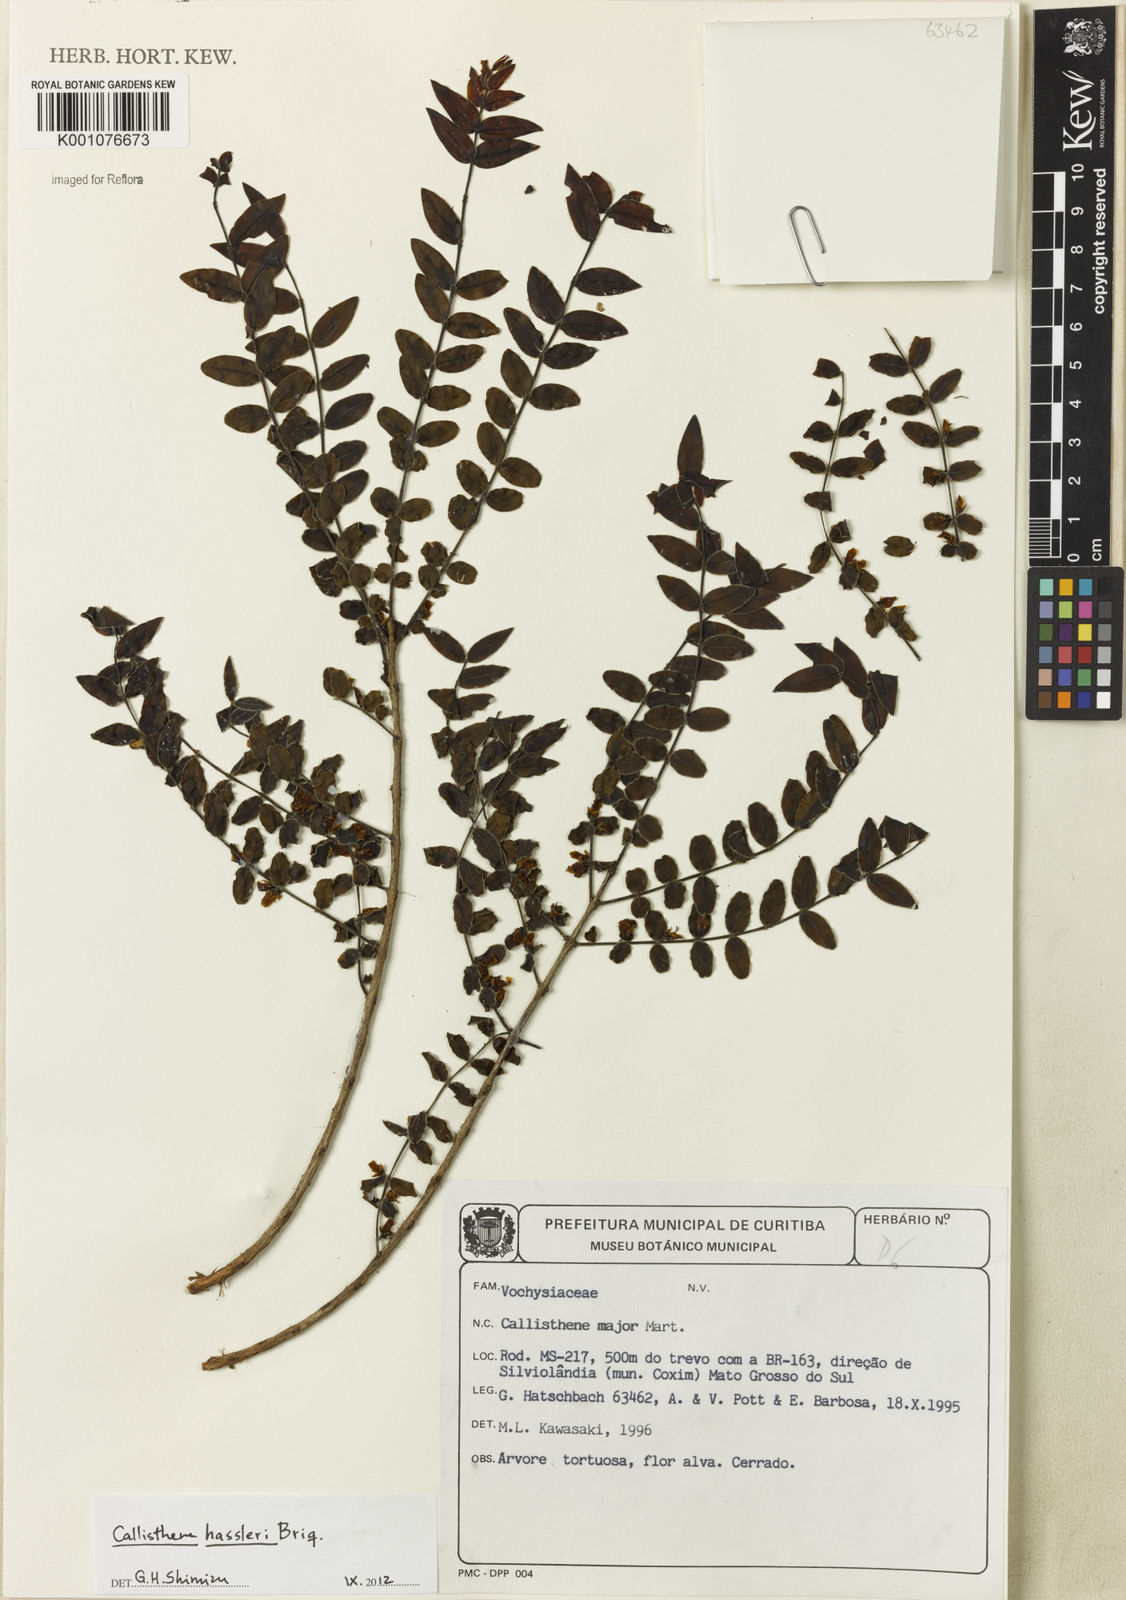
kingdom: Plantae
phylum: Tracheophyta
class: Magnoliopsida
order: Myrtales
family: Vochysiaceae
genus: Callisthene
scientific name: Callisthene hassleri
